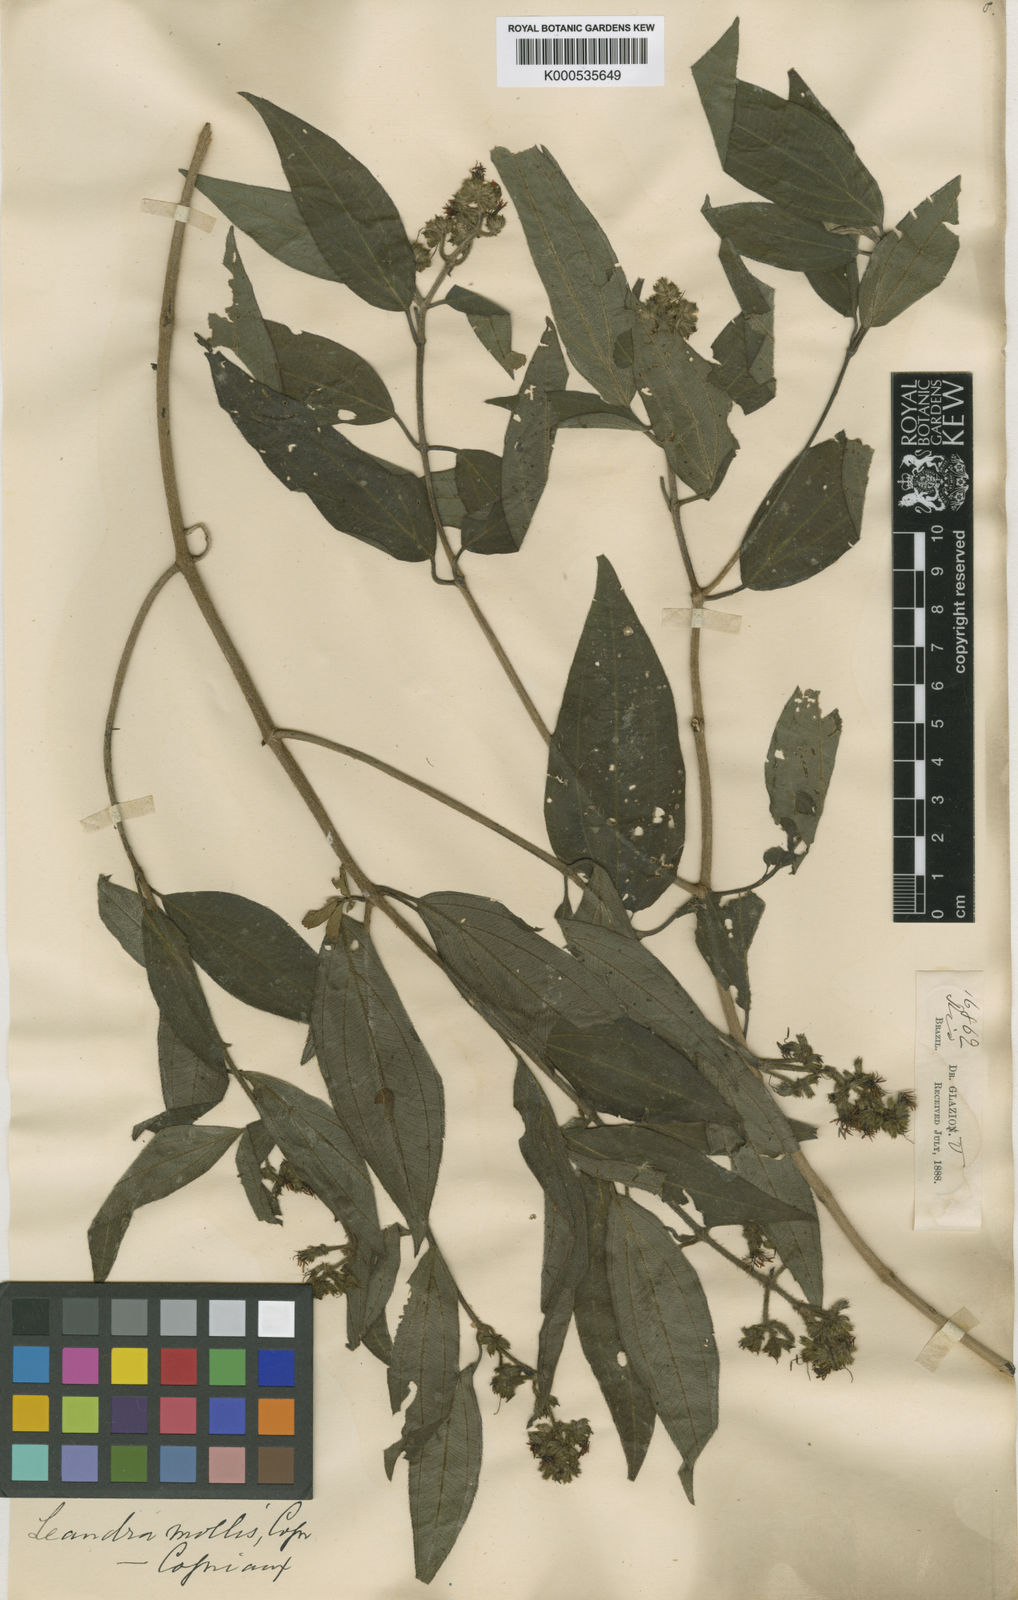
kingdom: Plantae
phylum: Tracheophyta
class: Magnoliopsida
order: Myrtales
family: Melastomataceae
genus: Miconia
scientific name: Miconia leamollis
